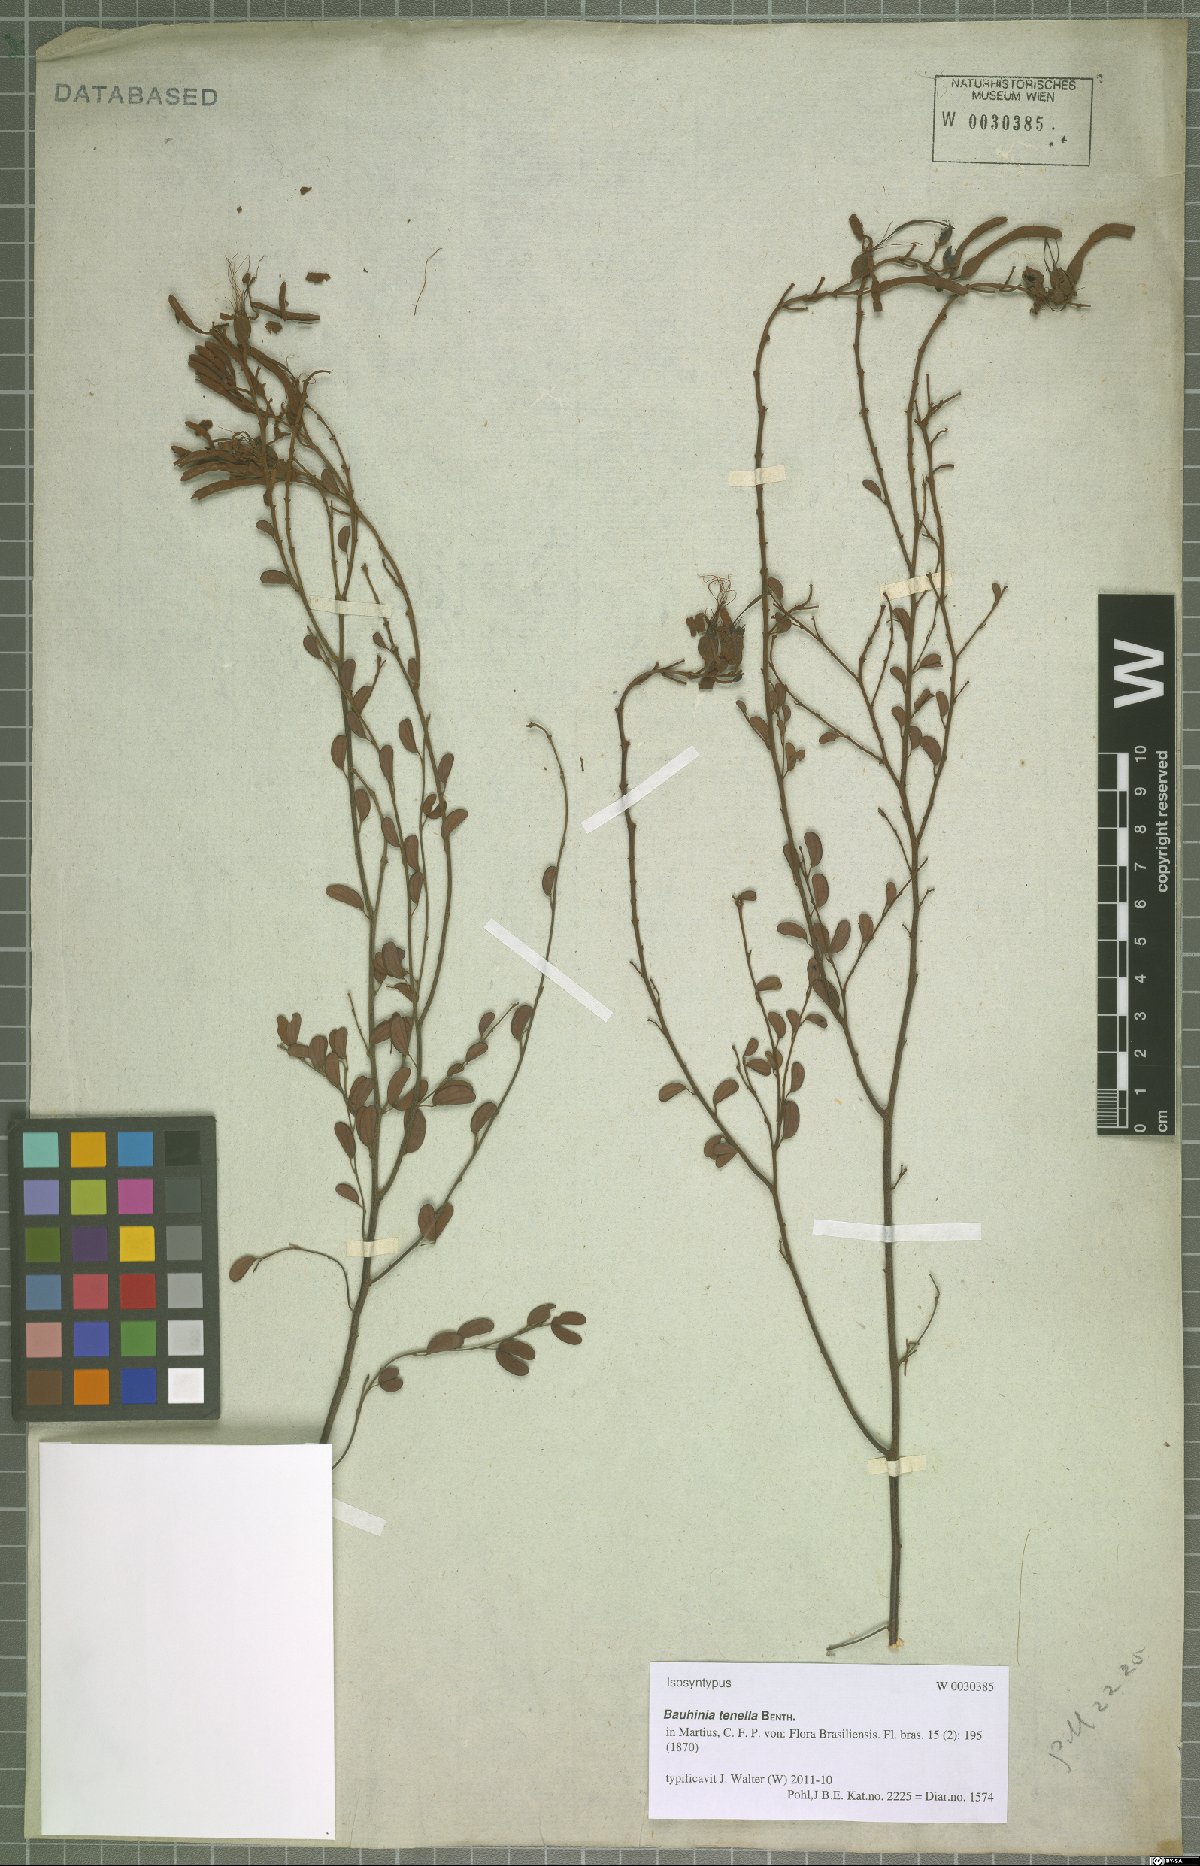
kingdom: Plantae
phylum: Tracheophyta
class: Magnoliopsida
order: Fabales
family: Fabaceae
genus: Bauhinia
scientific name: Bauhinia tenella
